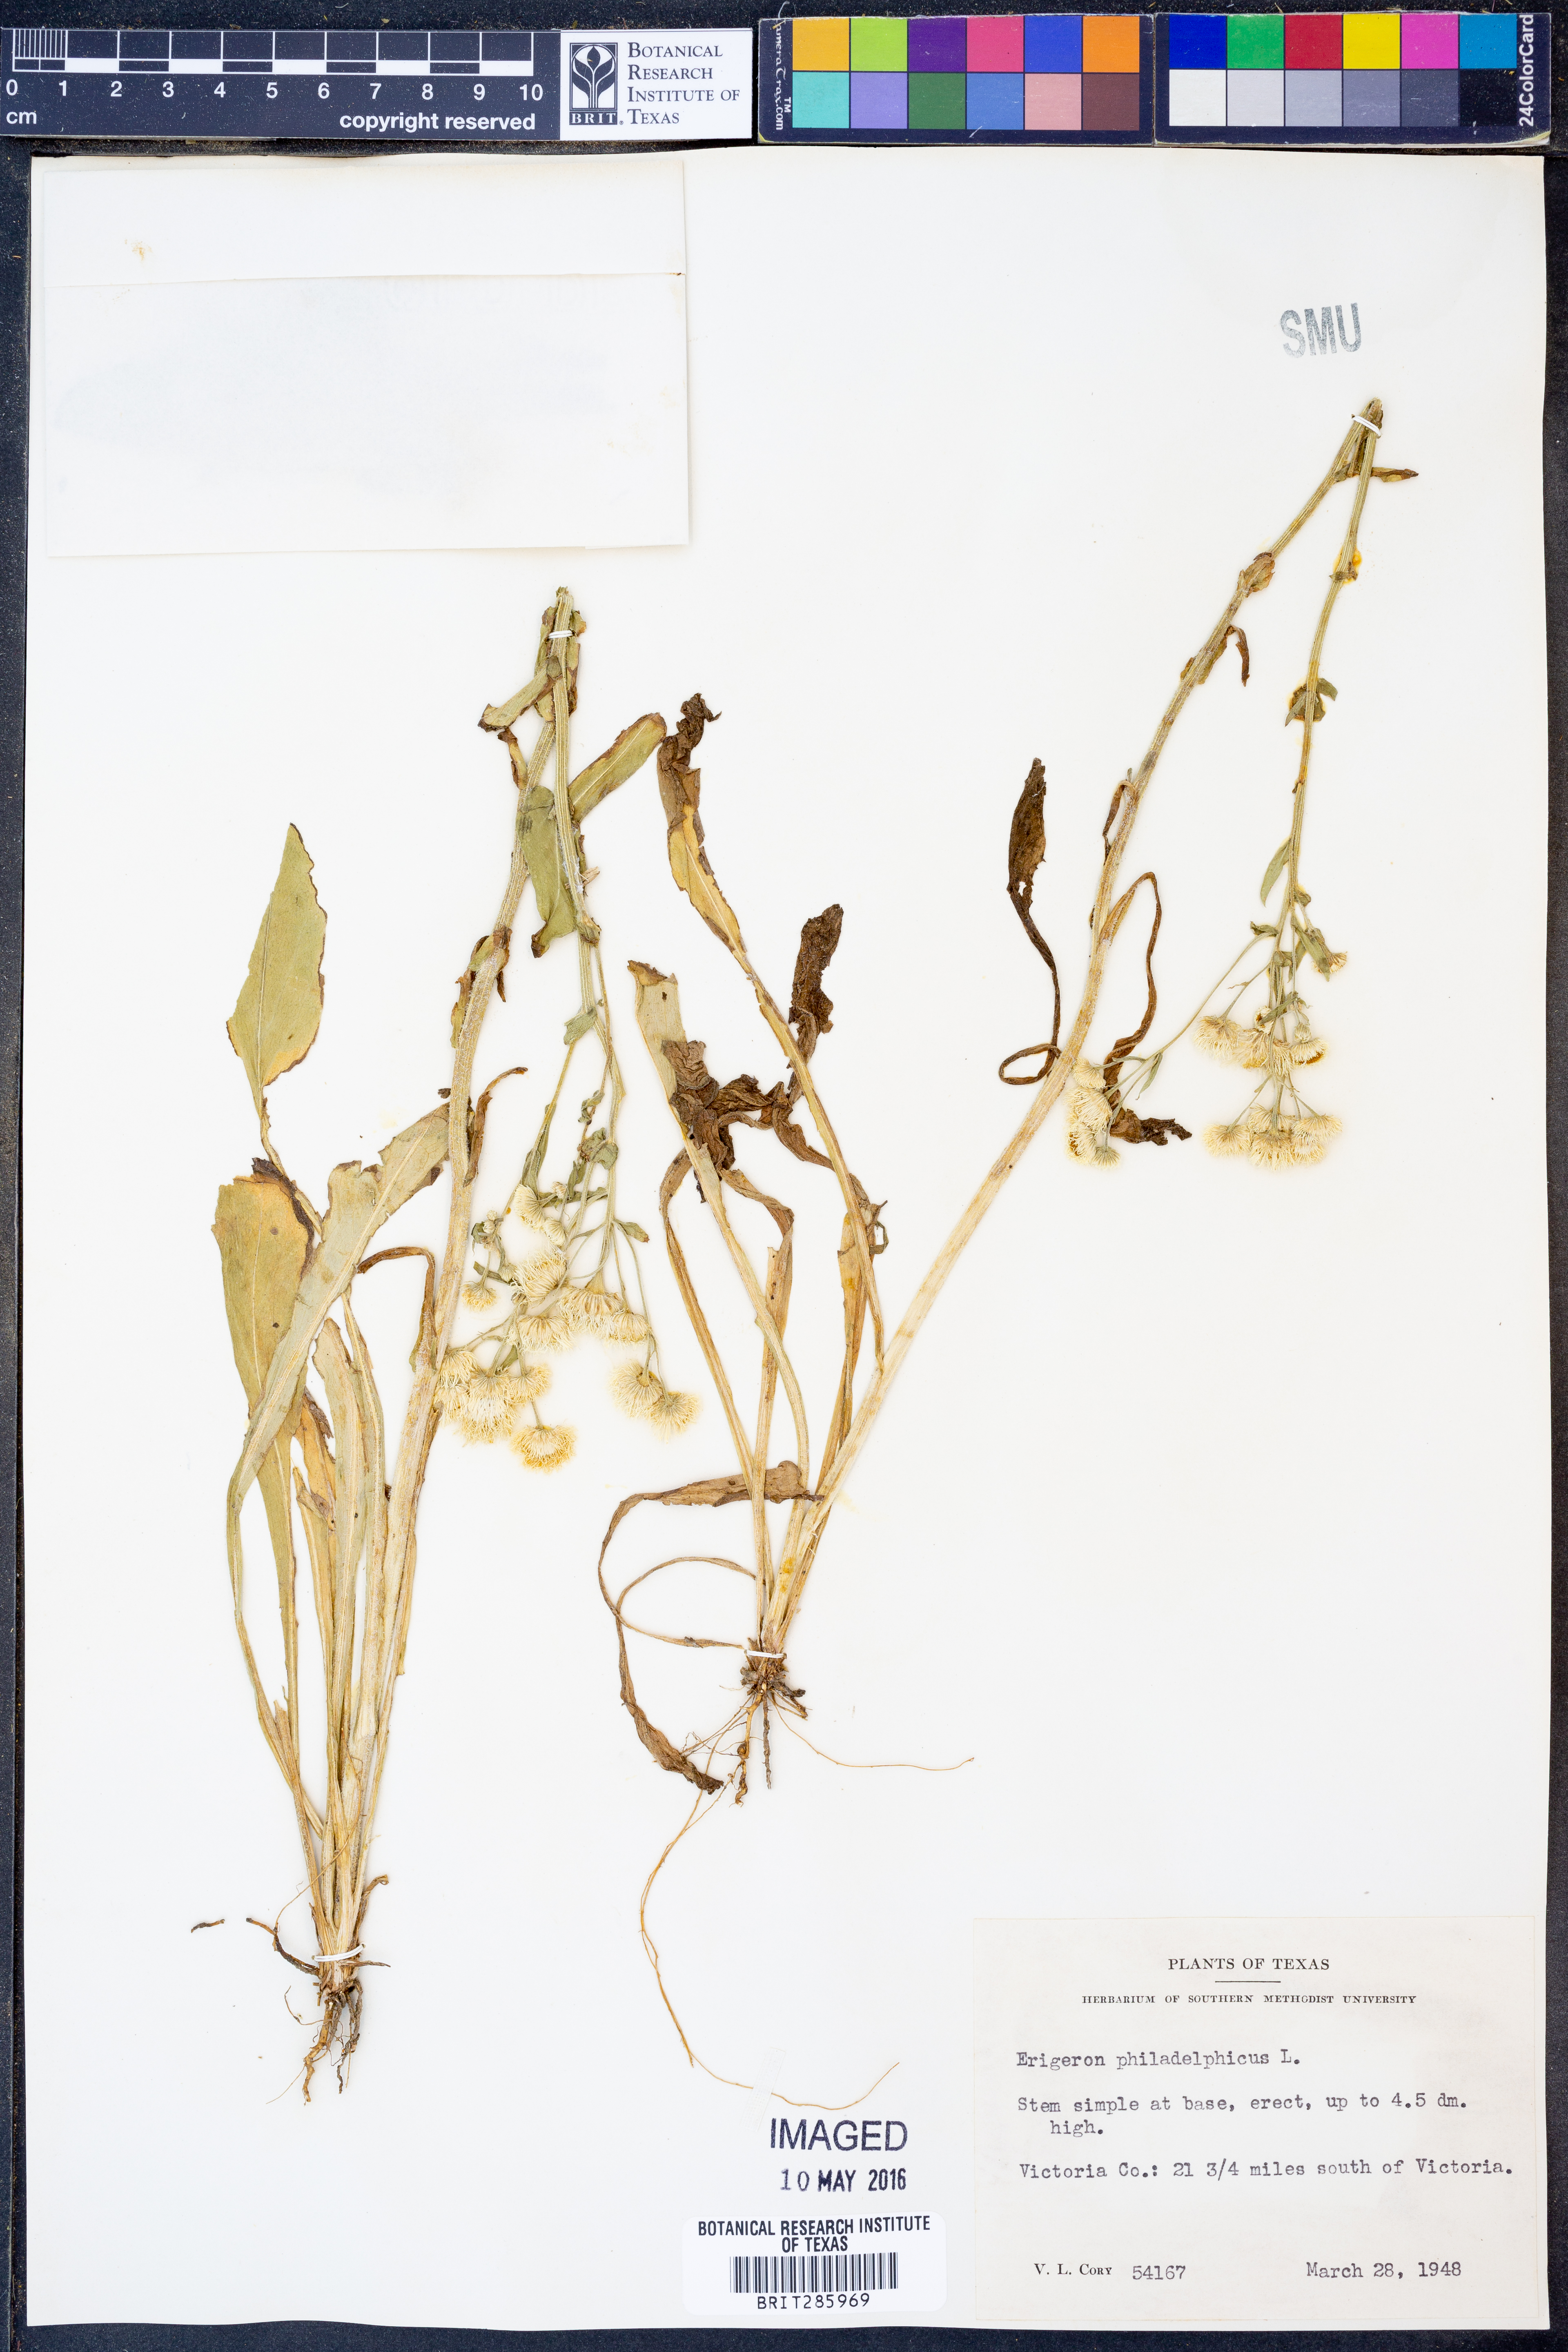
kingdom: Plantae
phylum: Tracheophyta
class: Magnoliopsida
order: Asterales
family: Asteraceae
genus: Erigeron
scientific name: Erigeron philadelphicus
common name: Robin's-plantain
